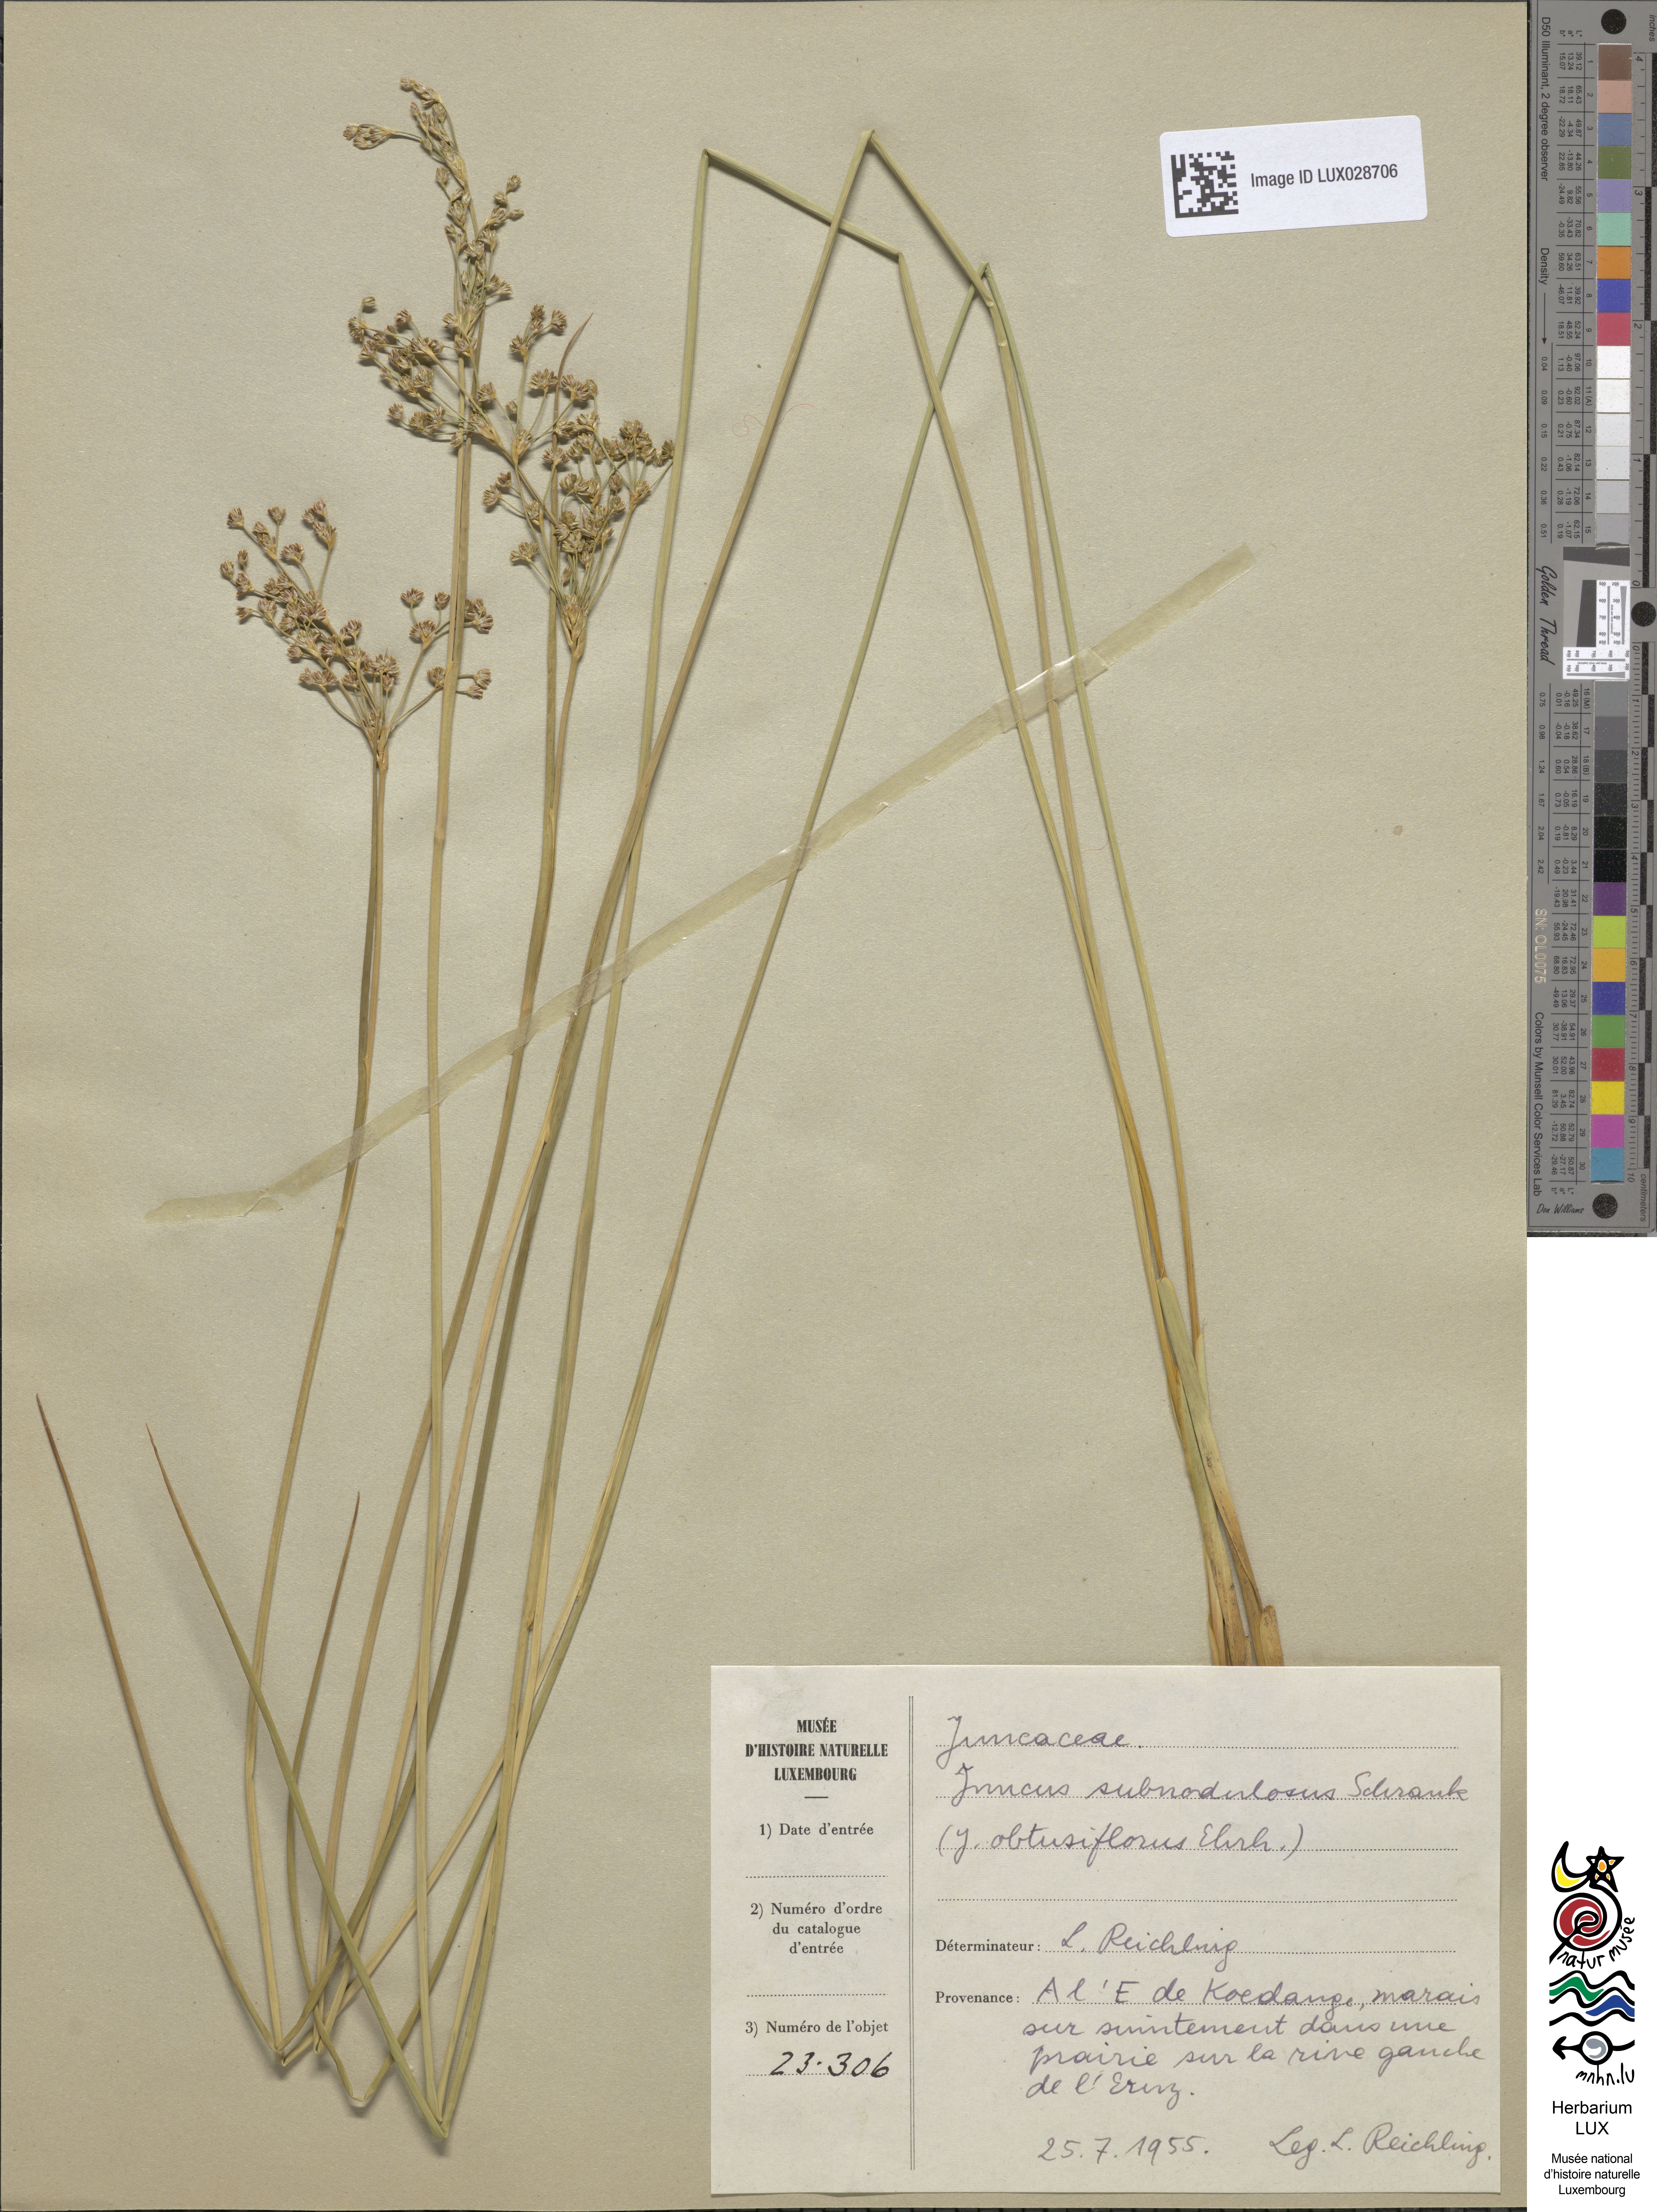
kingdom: Plantae
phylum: Tracheophyta
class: Liliopsida
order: Poales
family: Juncaceae
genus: Juncus
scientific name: Juncus subnodulosus
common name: Blunt-flowered rush
